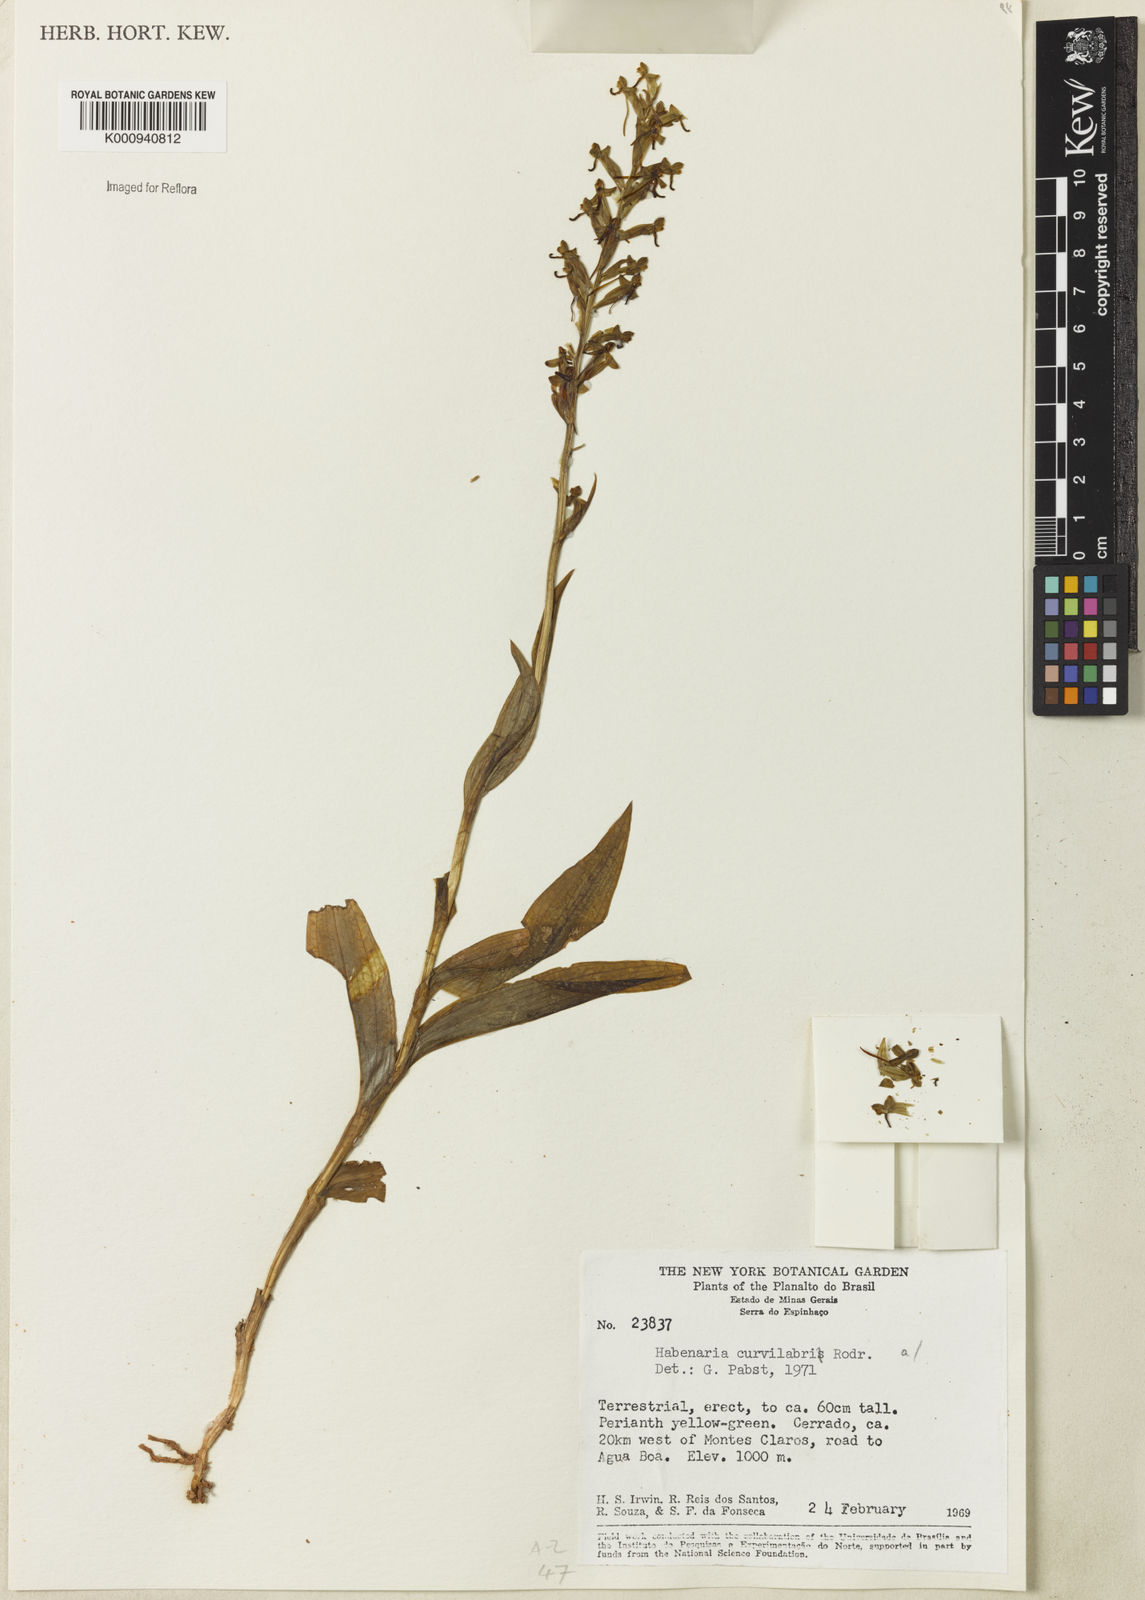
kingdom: Plantae
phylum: Tracheophyta
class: Liliopsida
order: Asparagales
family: Orchidaceae
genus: Habenaria
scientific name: Habenaria curvilabra
